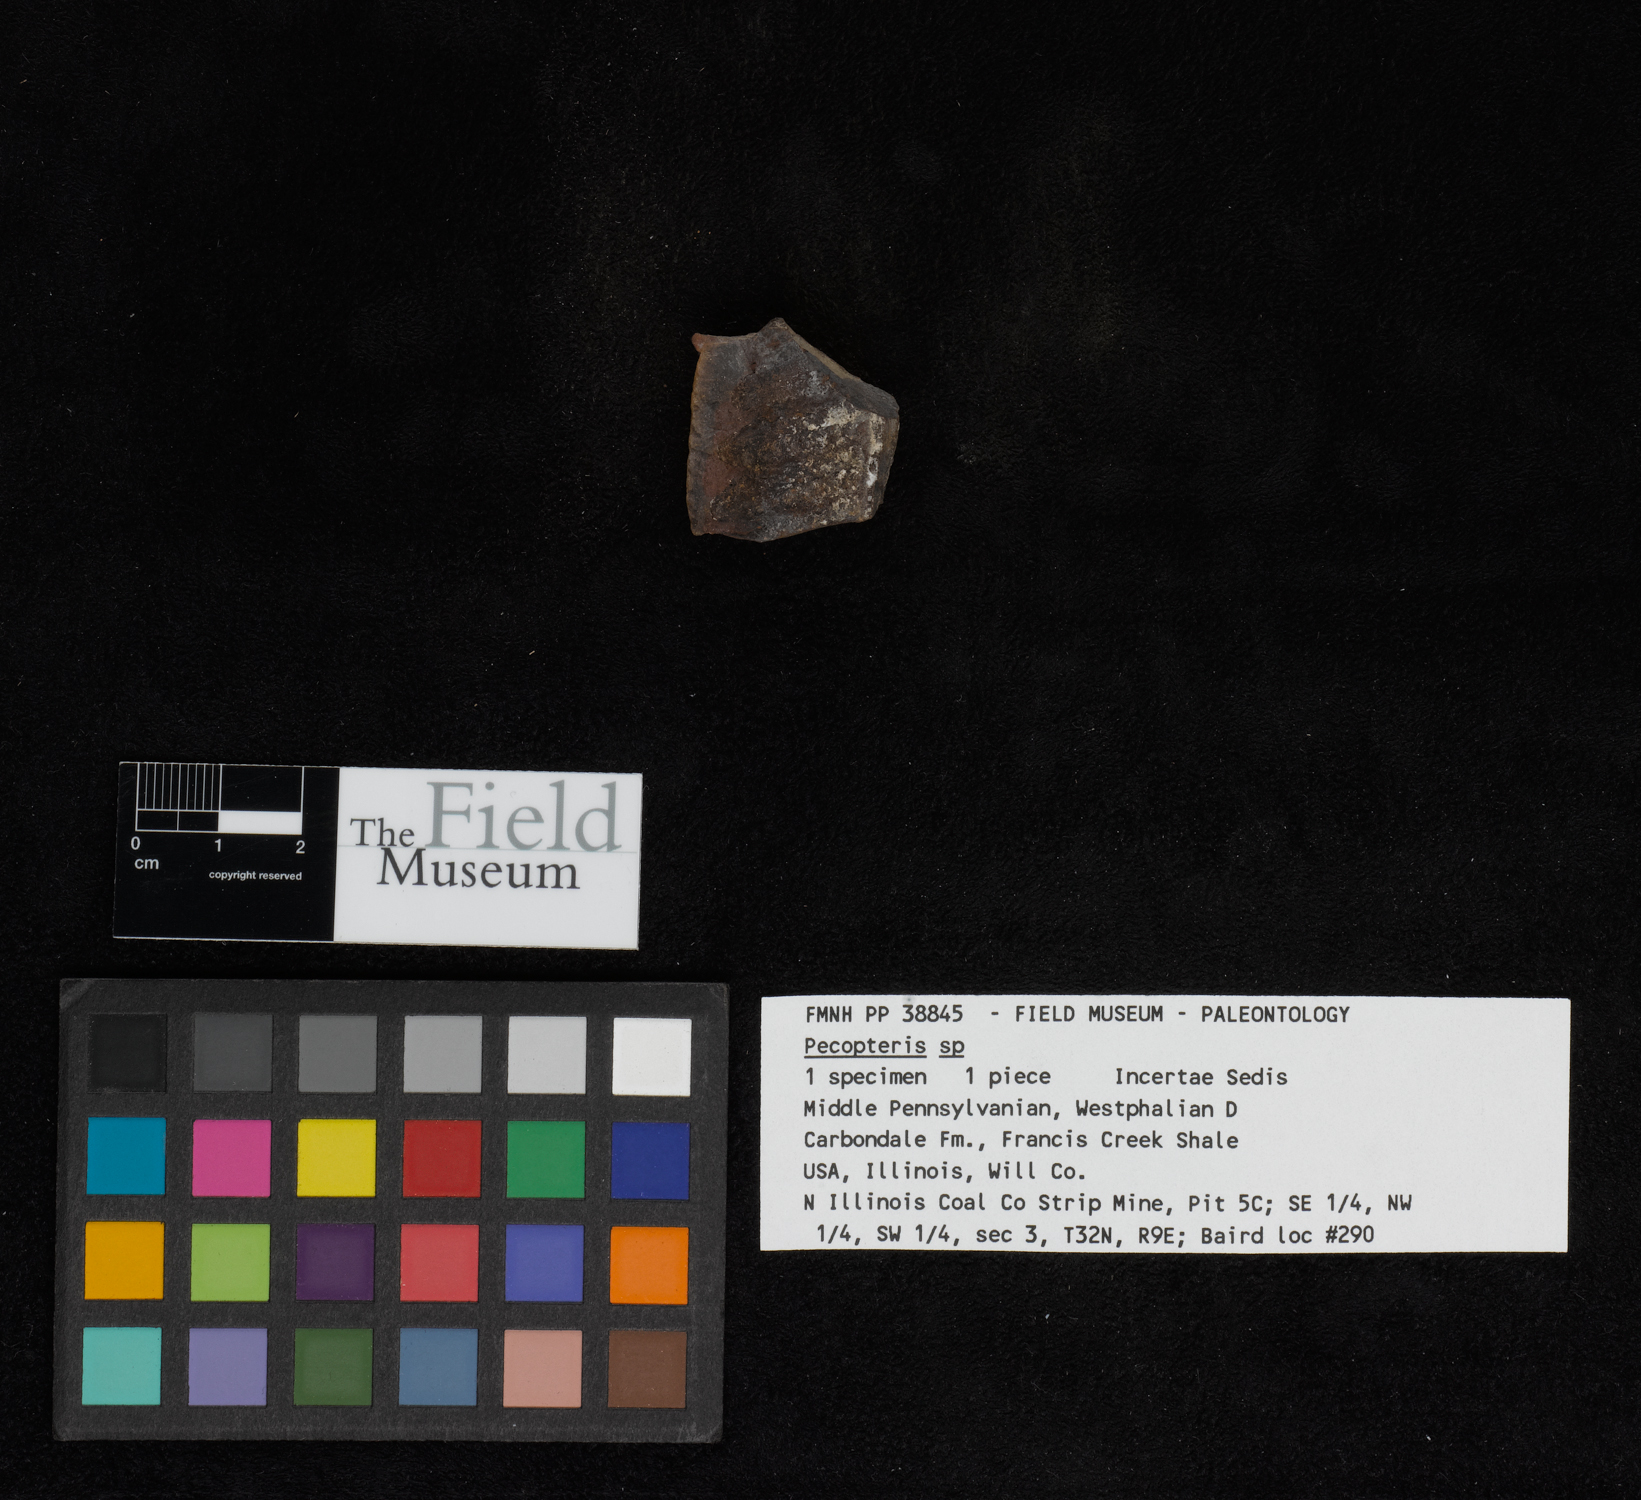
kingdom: Plantae
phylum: Tracheophyta
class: Polypodiopsida
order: Marattiales
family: Asterothecaceae
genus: Pecopteris
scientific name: Pecopteris
